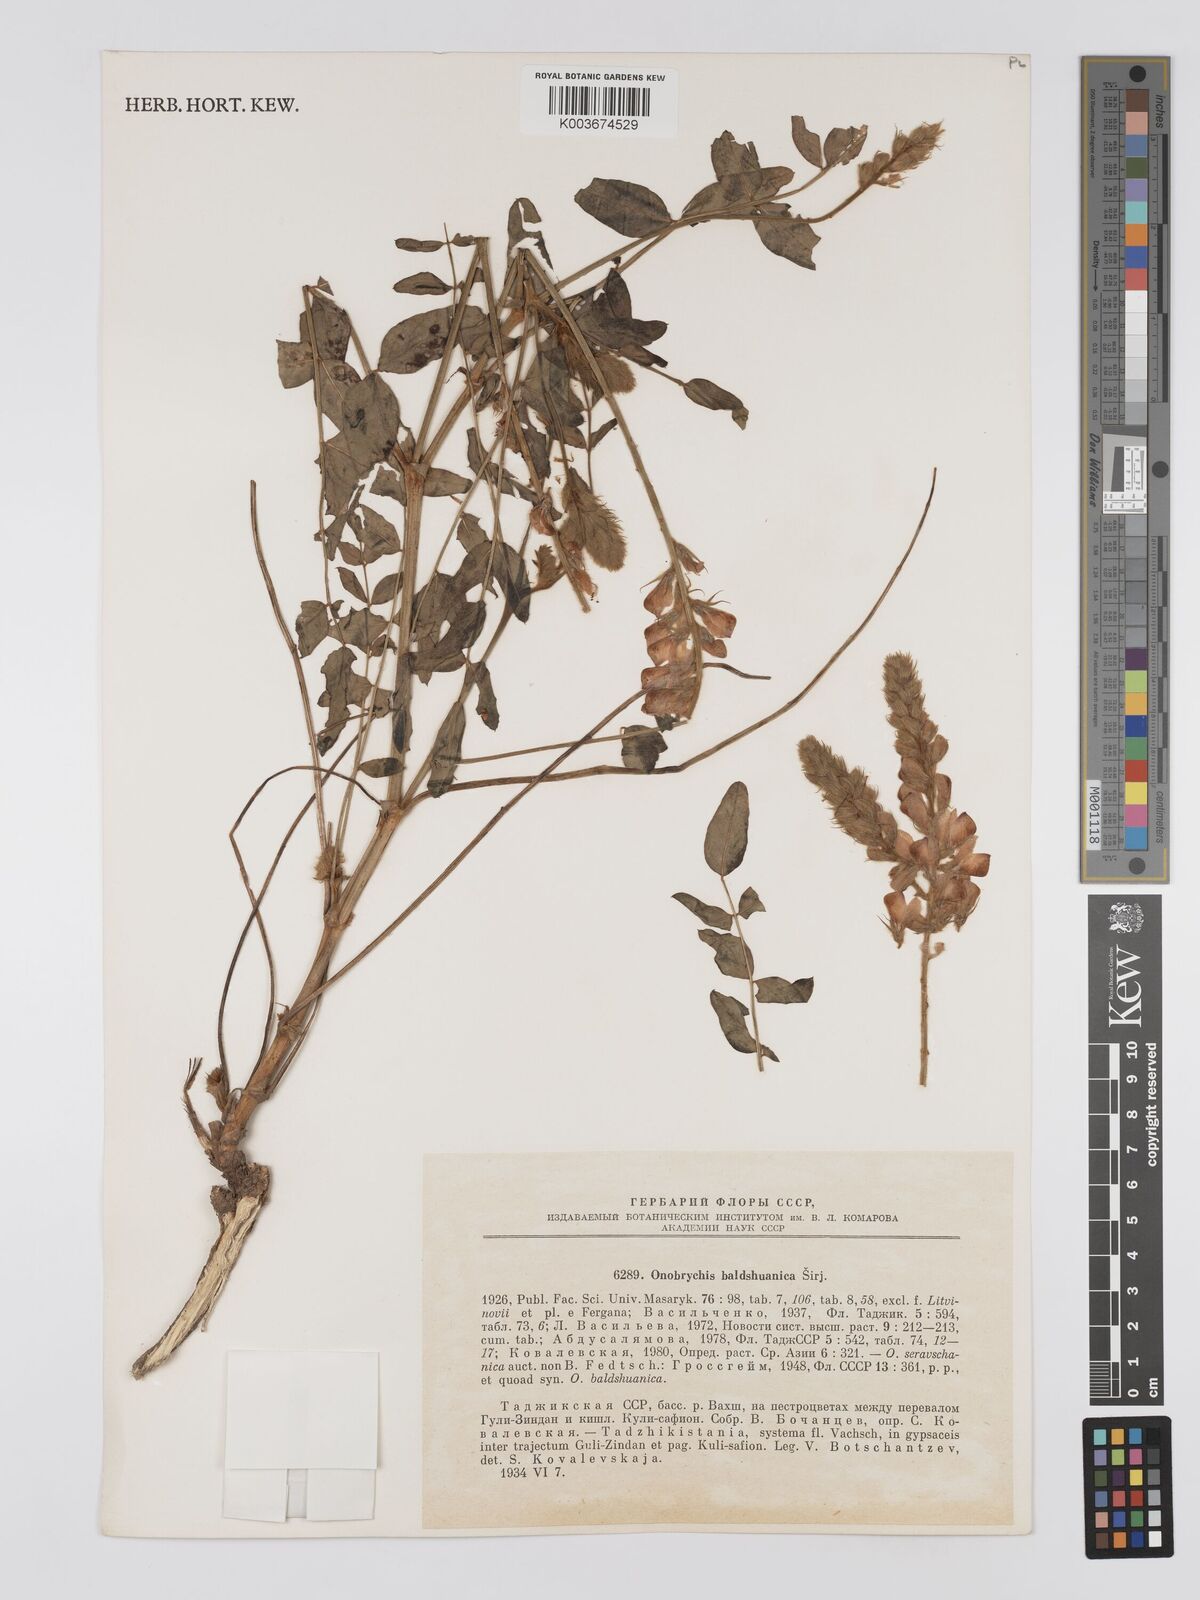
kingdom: Plantae
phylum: Tracheophyta
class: Magnoliopsida
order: Fabales
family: Fabaceae
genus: Onobrychis
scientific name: Onobrychis saravschanica
